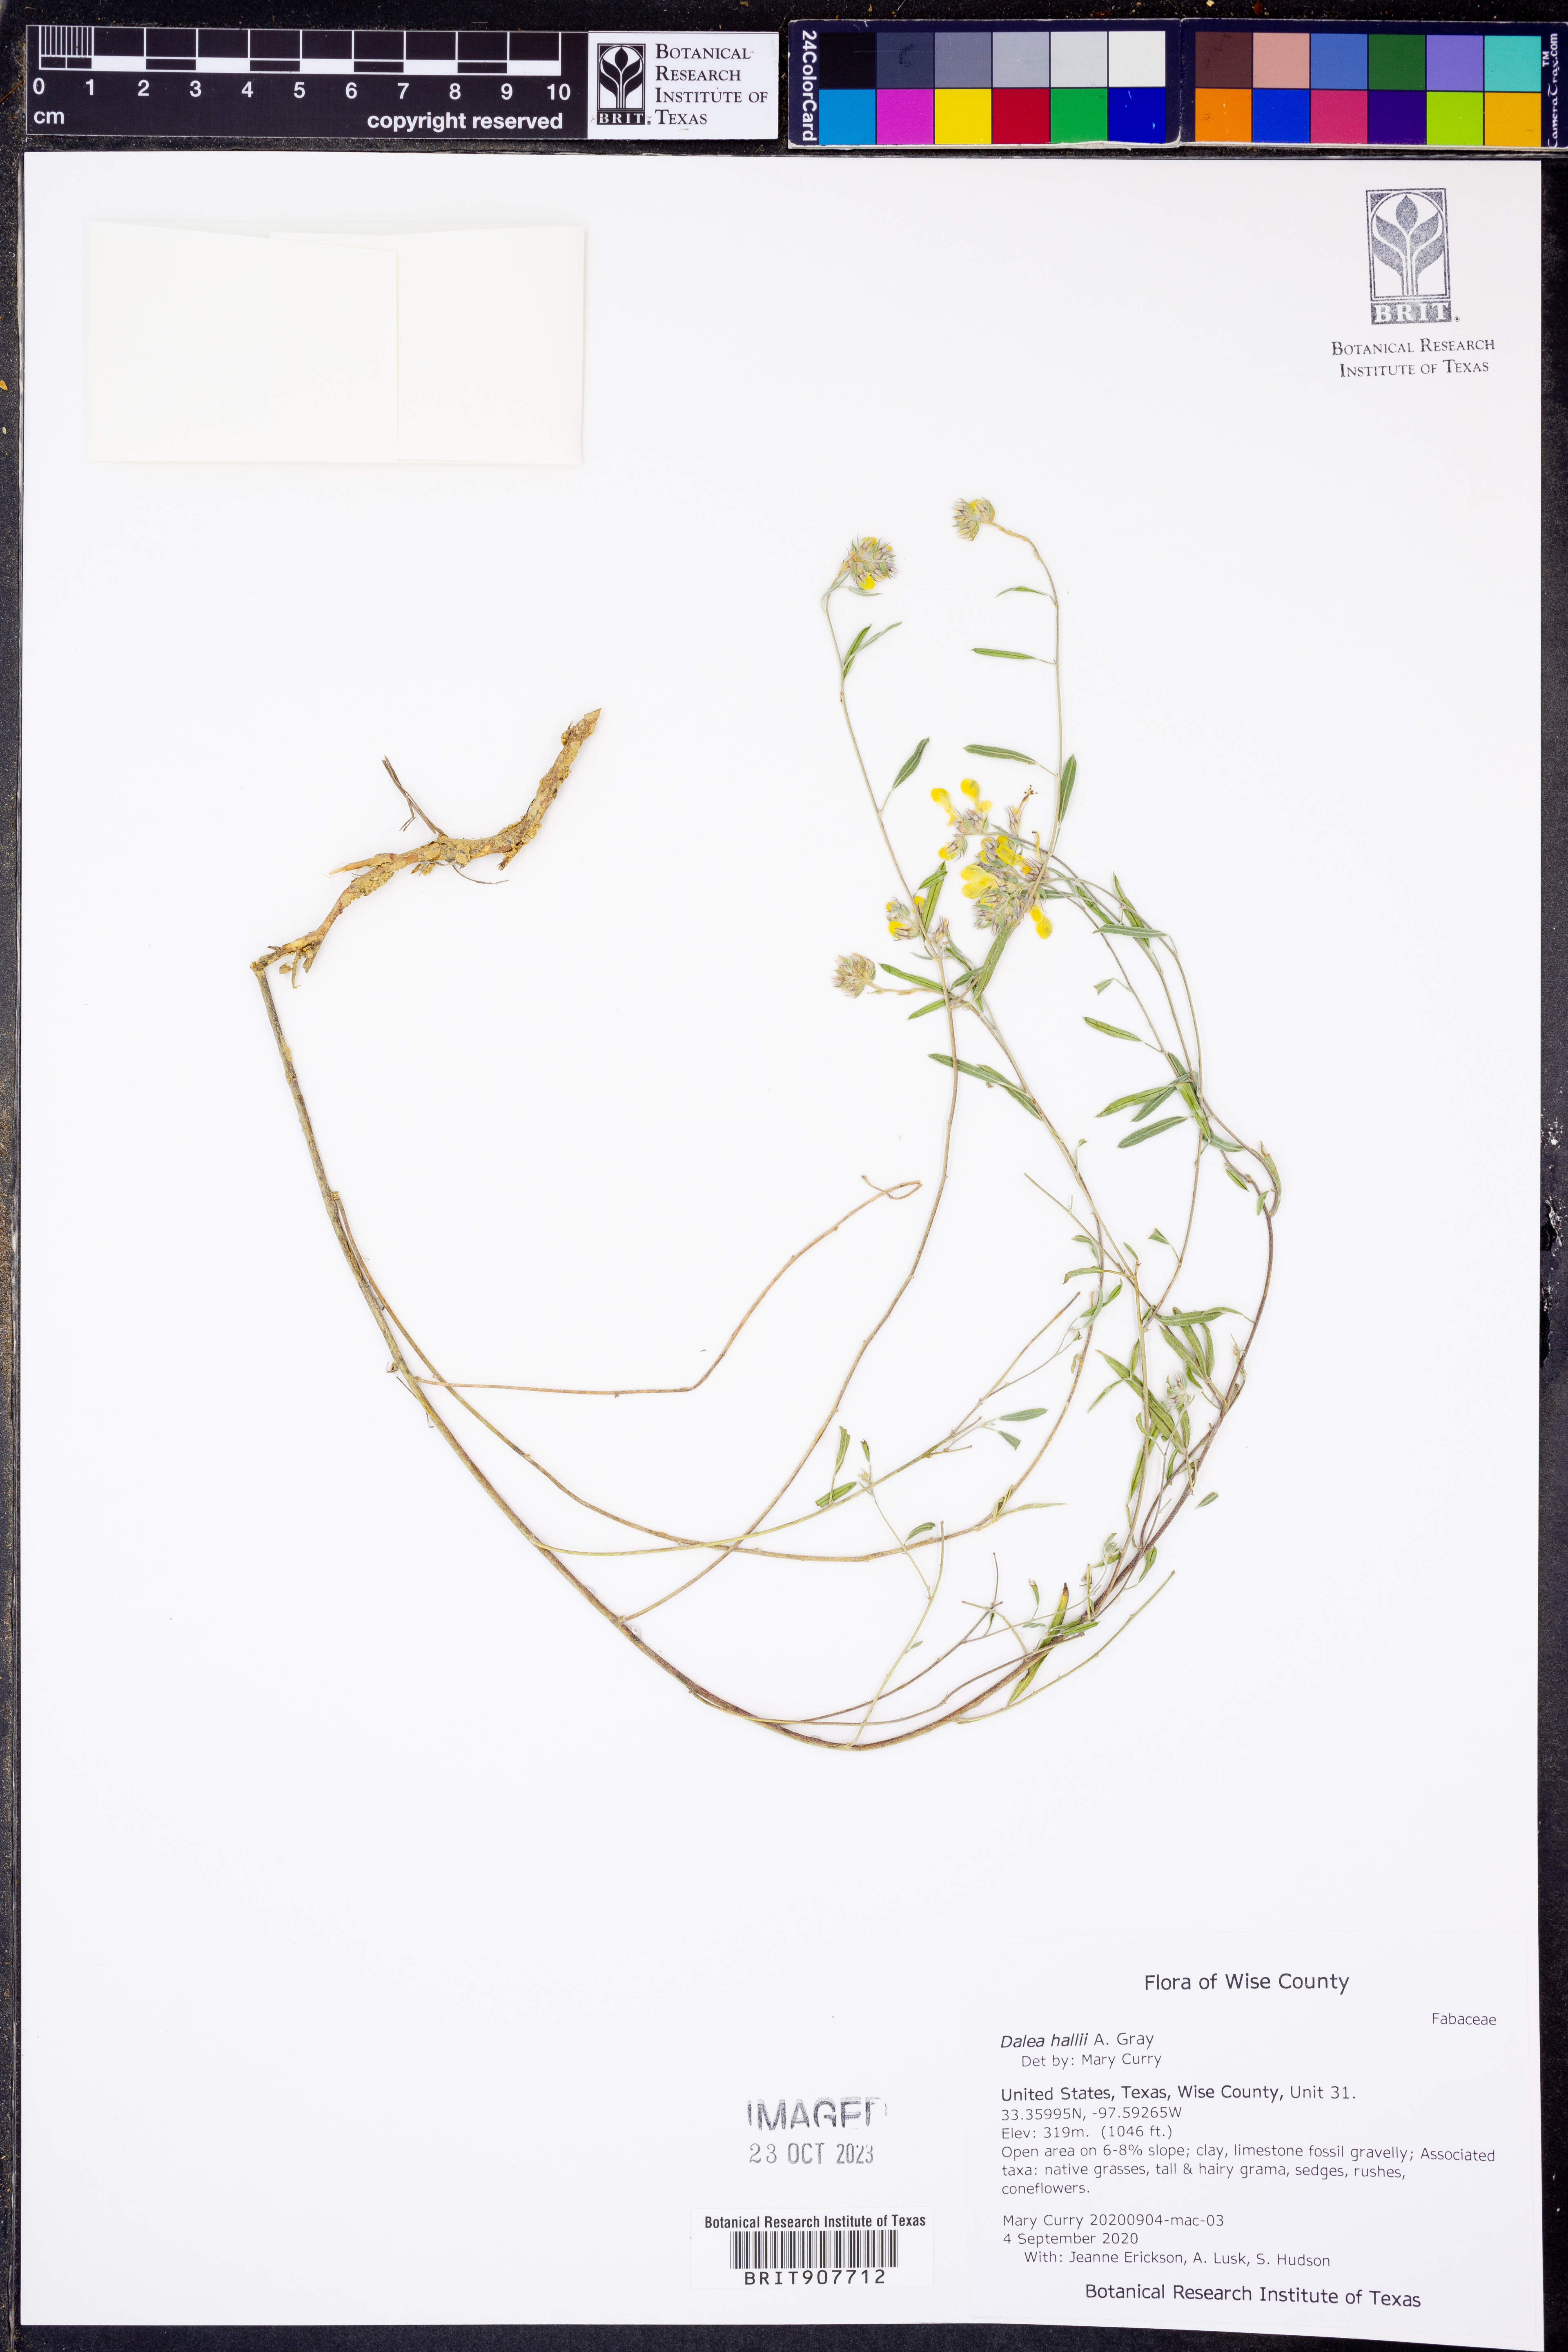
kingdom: Plantae
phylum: Tracheophyta
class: Magnoliopsida
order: Fabales
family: Fabaceae
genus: Dalea
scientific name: Dalea hallii
